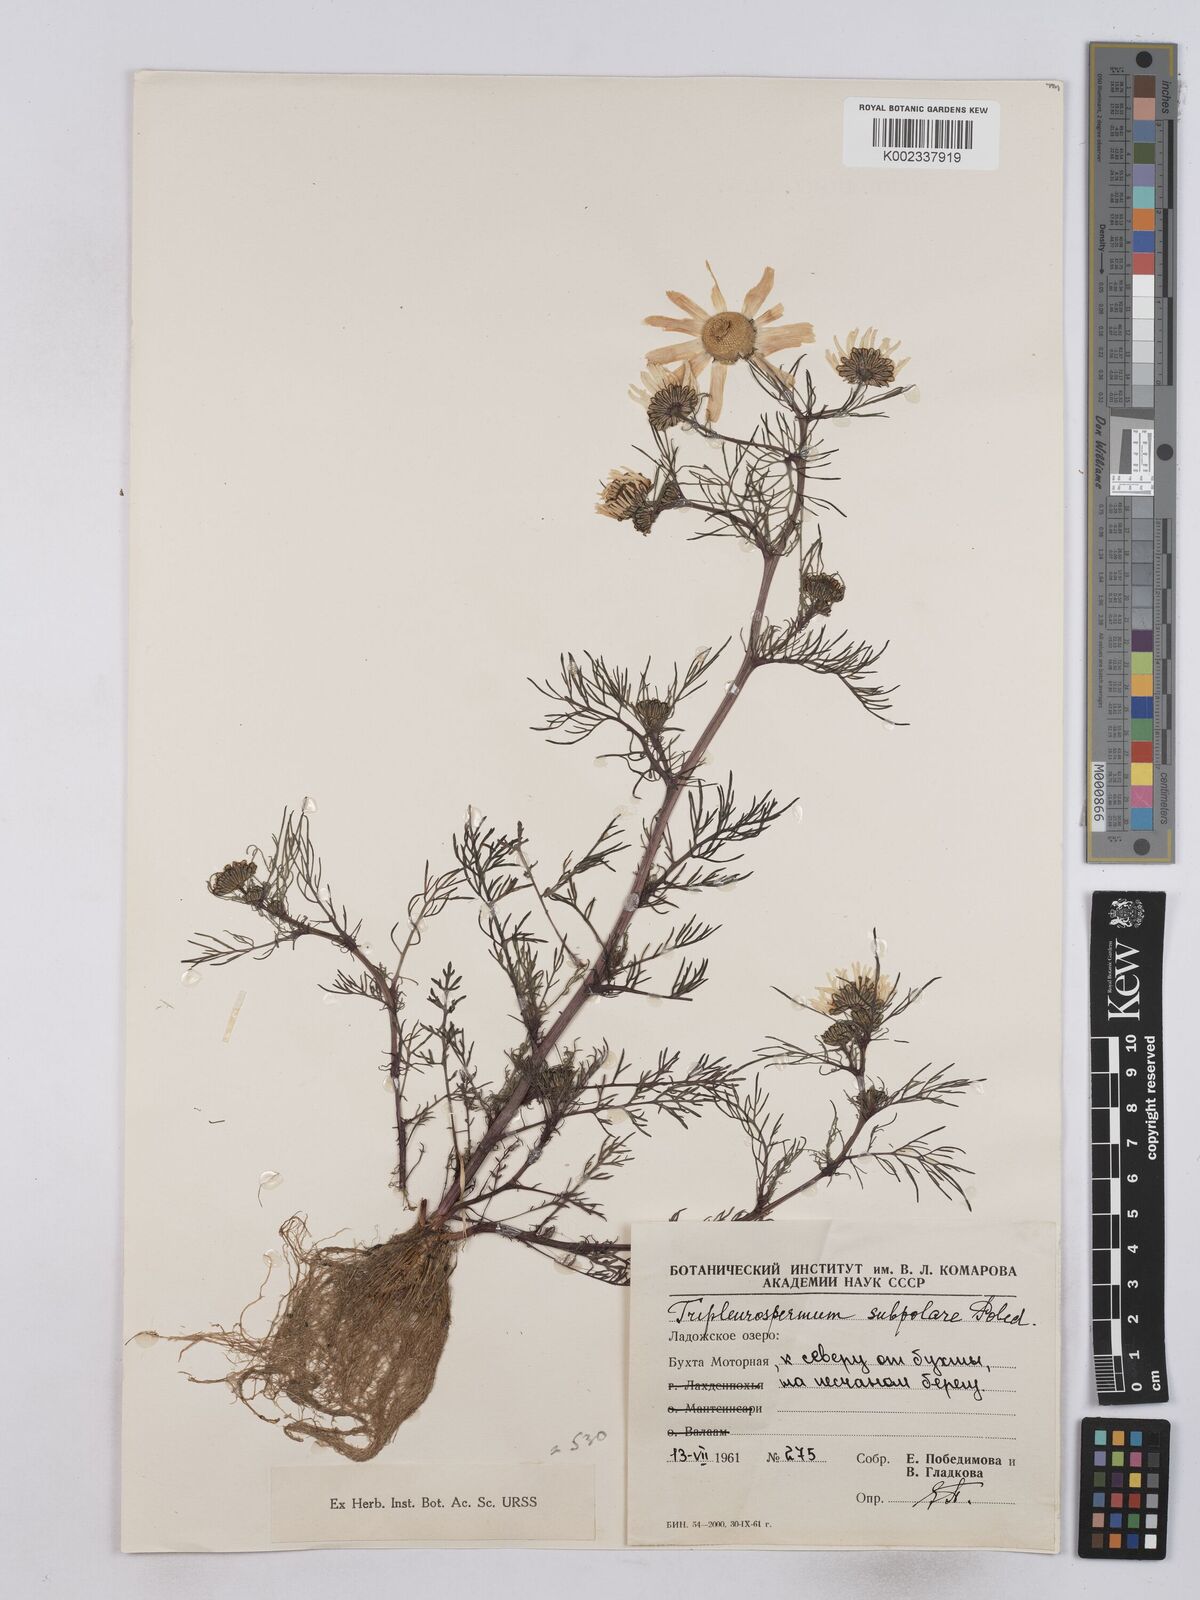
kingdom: Plantae
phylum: Tracheophyta
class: Magnoliopsida
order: Asterales
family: Asteraceae
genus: Tripleurospermum
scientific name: Tripleurospermum subpolare
